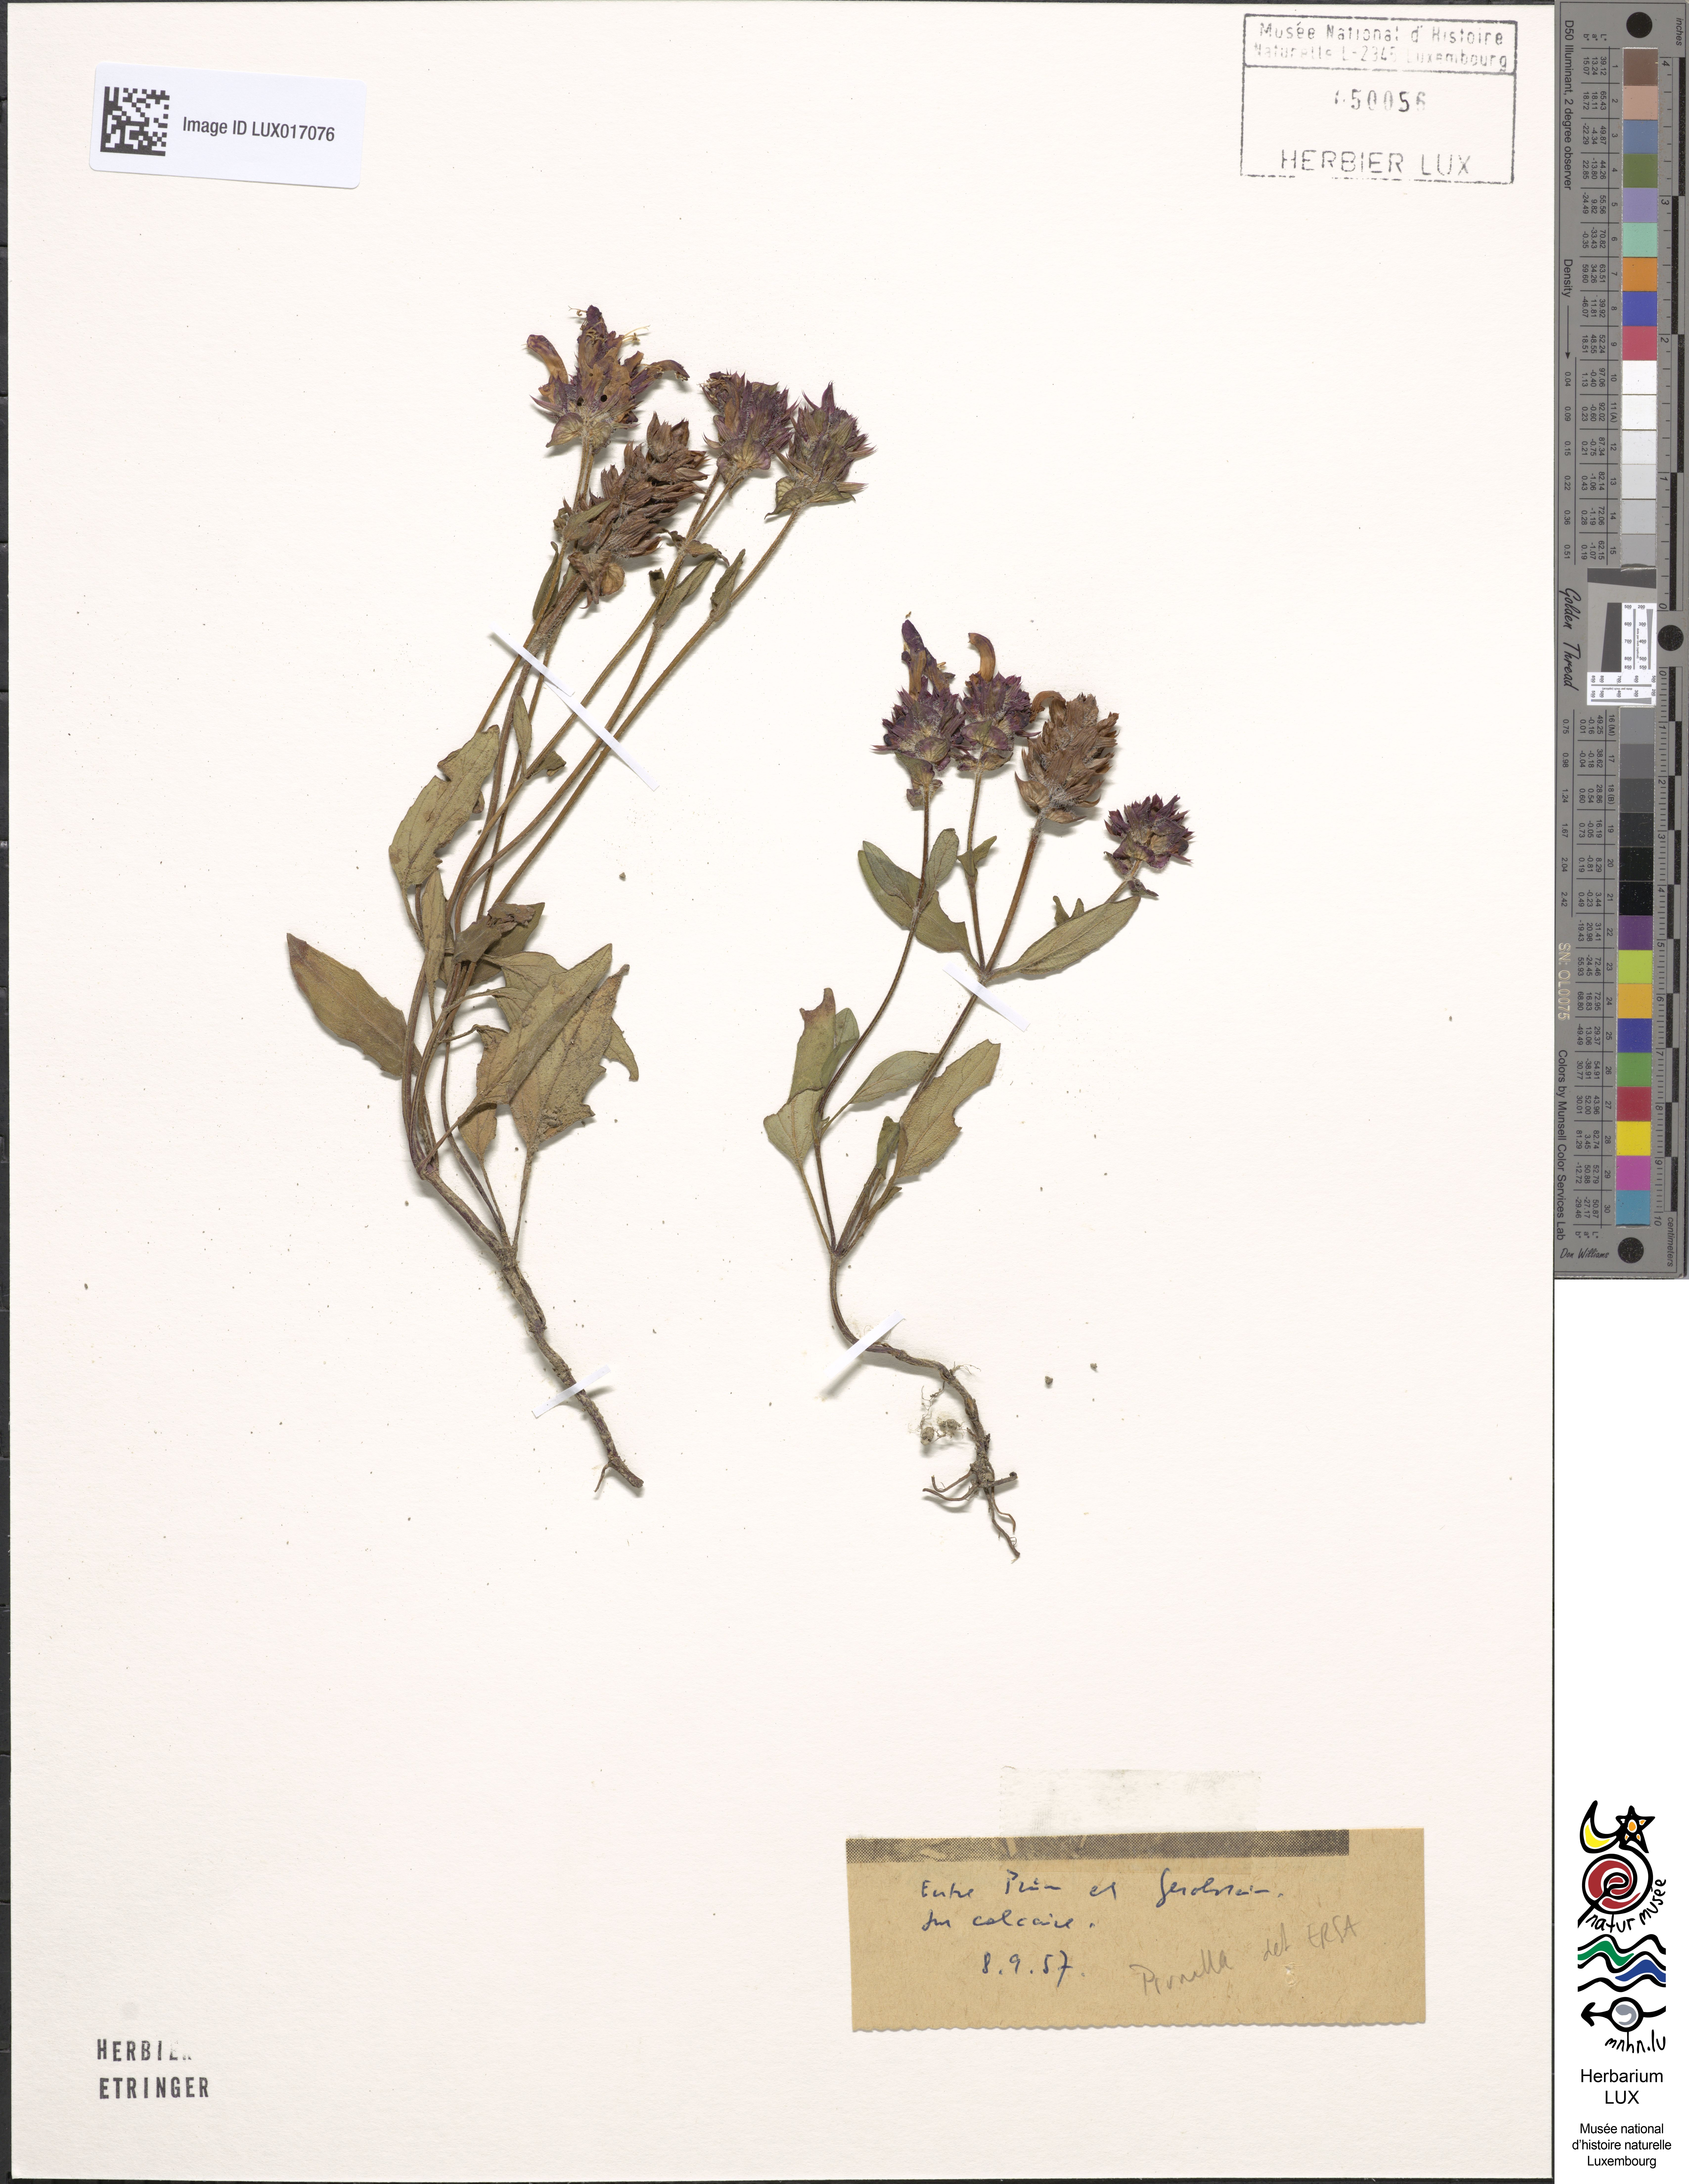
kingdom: Plantae
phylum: Tracheophyta
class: Magnoliopsida
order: Lamiales
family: Lamiaceae
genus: Prunella
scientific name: Prunella
